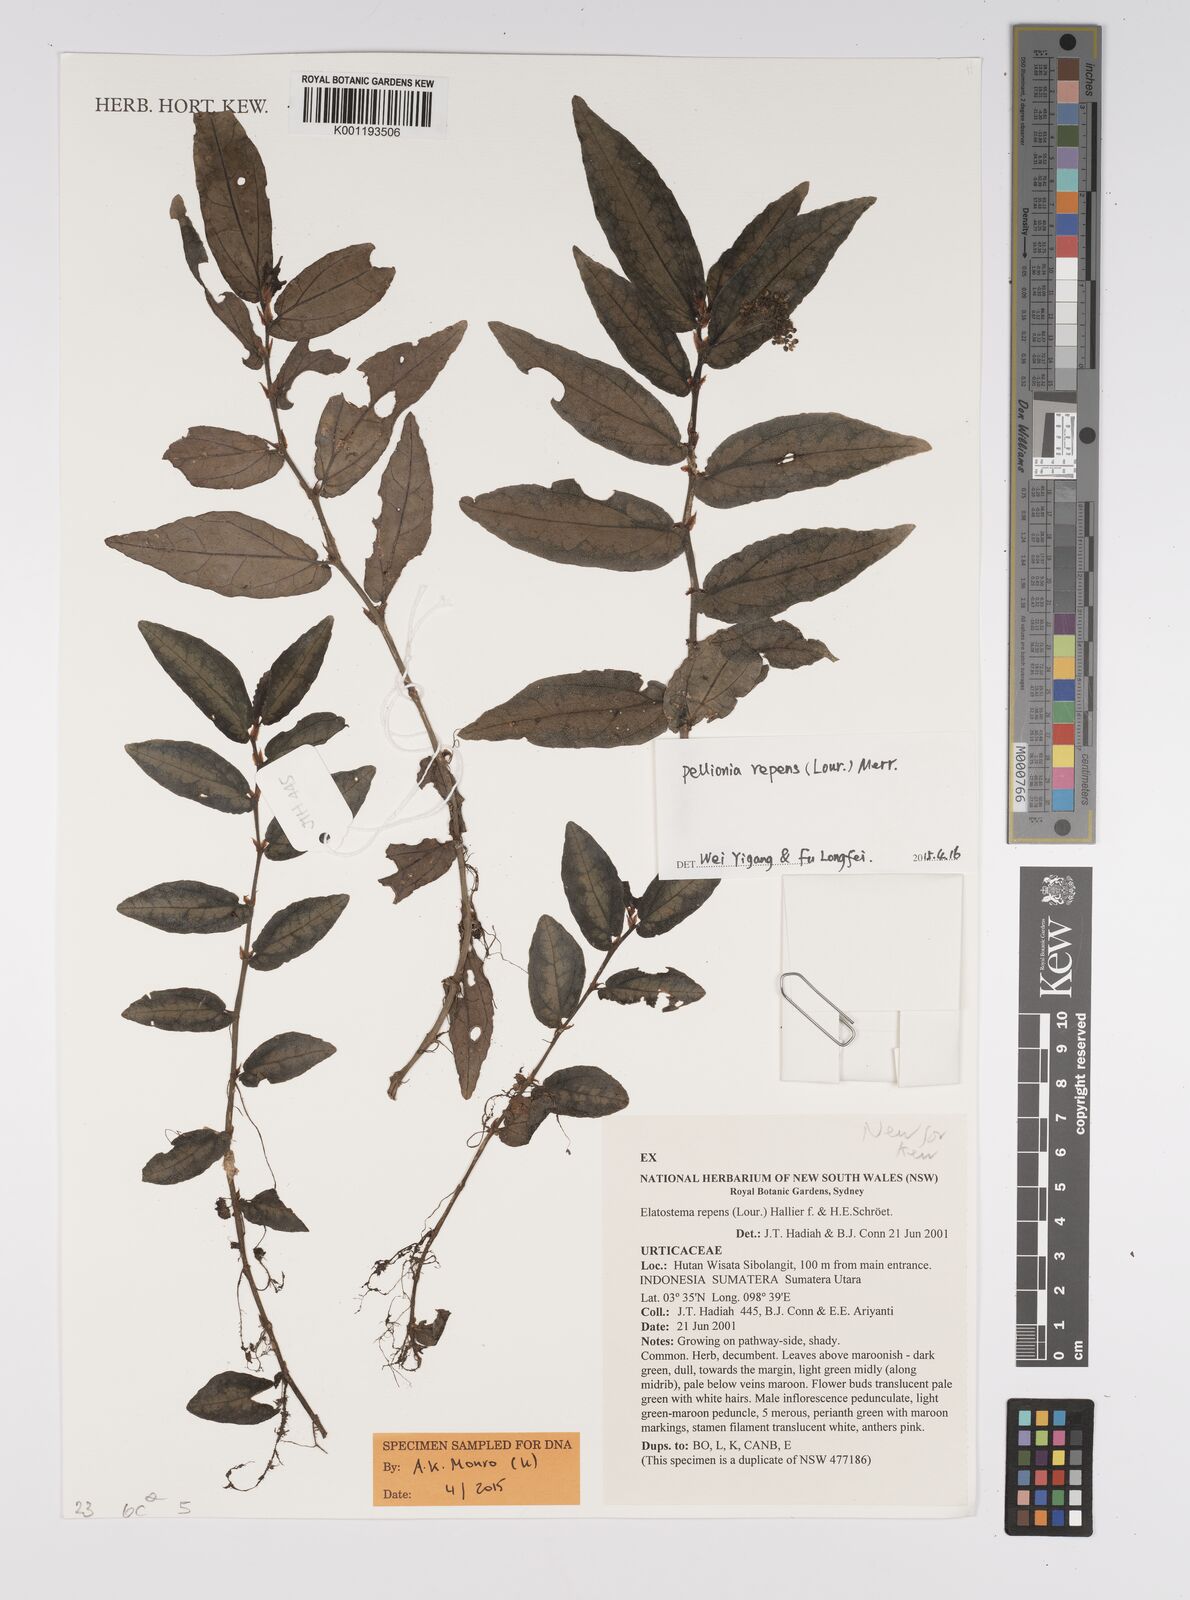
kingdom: Plantae
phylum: Tracheophyta
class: Magnoliopsida
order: Rosales
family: Urticaceae
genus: Procris
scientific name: Procris repens
